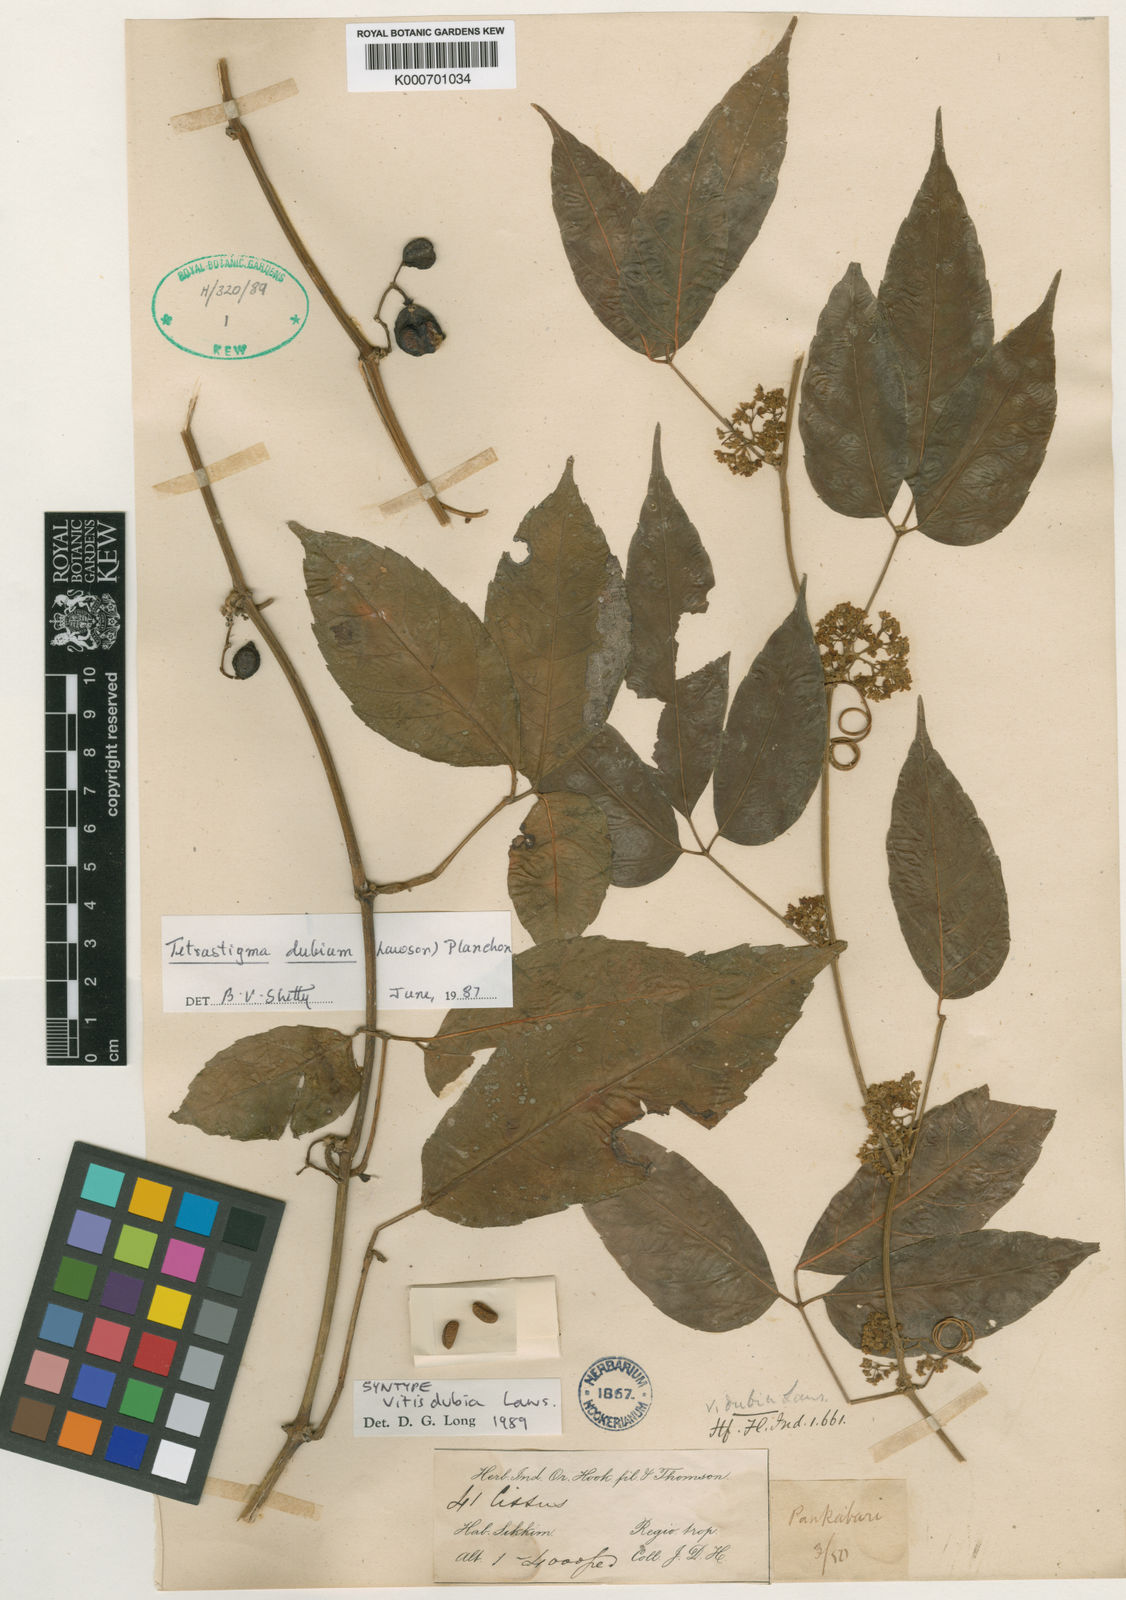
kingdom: Plantae
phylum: Tracheophyta
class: Magnoliopsida
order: Vitales
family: Vitaceae
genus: Tetrastigma
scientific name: Tetrastigma dubium
